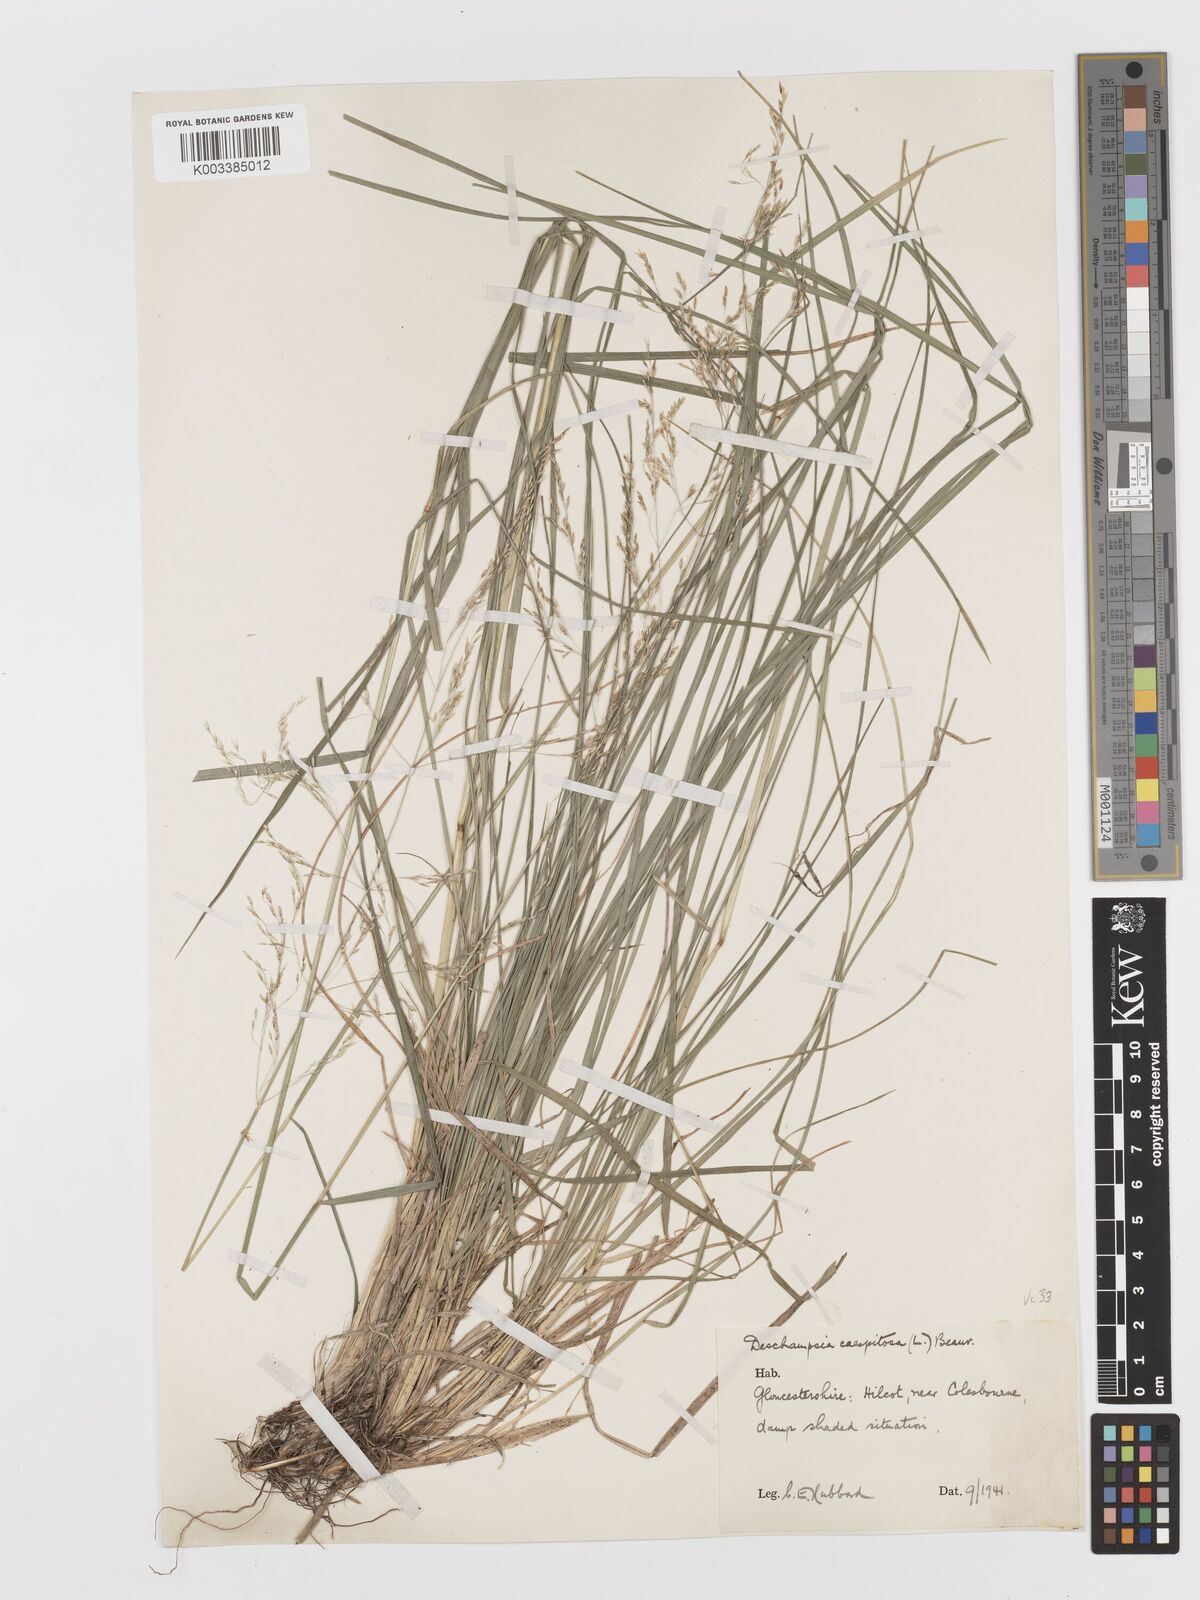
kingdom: Plantae
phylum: Tracheophyta
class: Liliopsida
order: Poales
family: Poaceae
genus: Deschampsia
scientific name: Deschampsia cespitosa
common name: Tufted hair-grass
